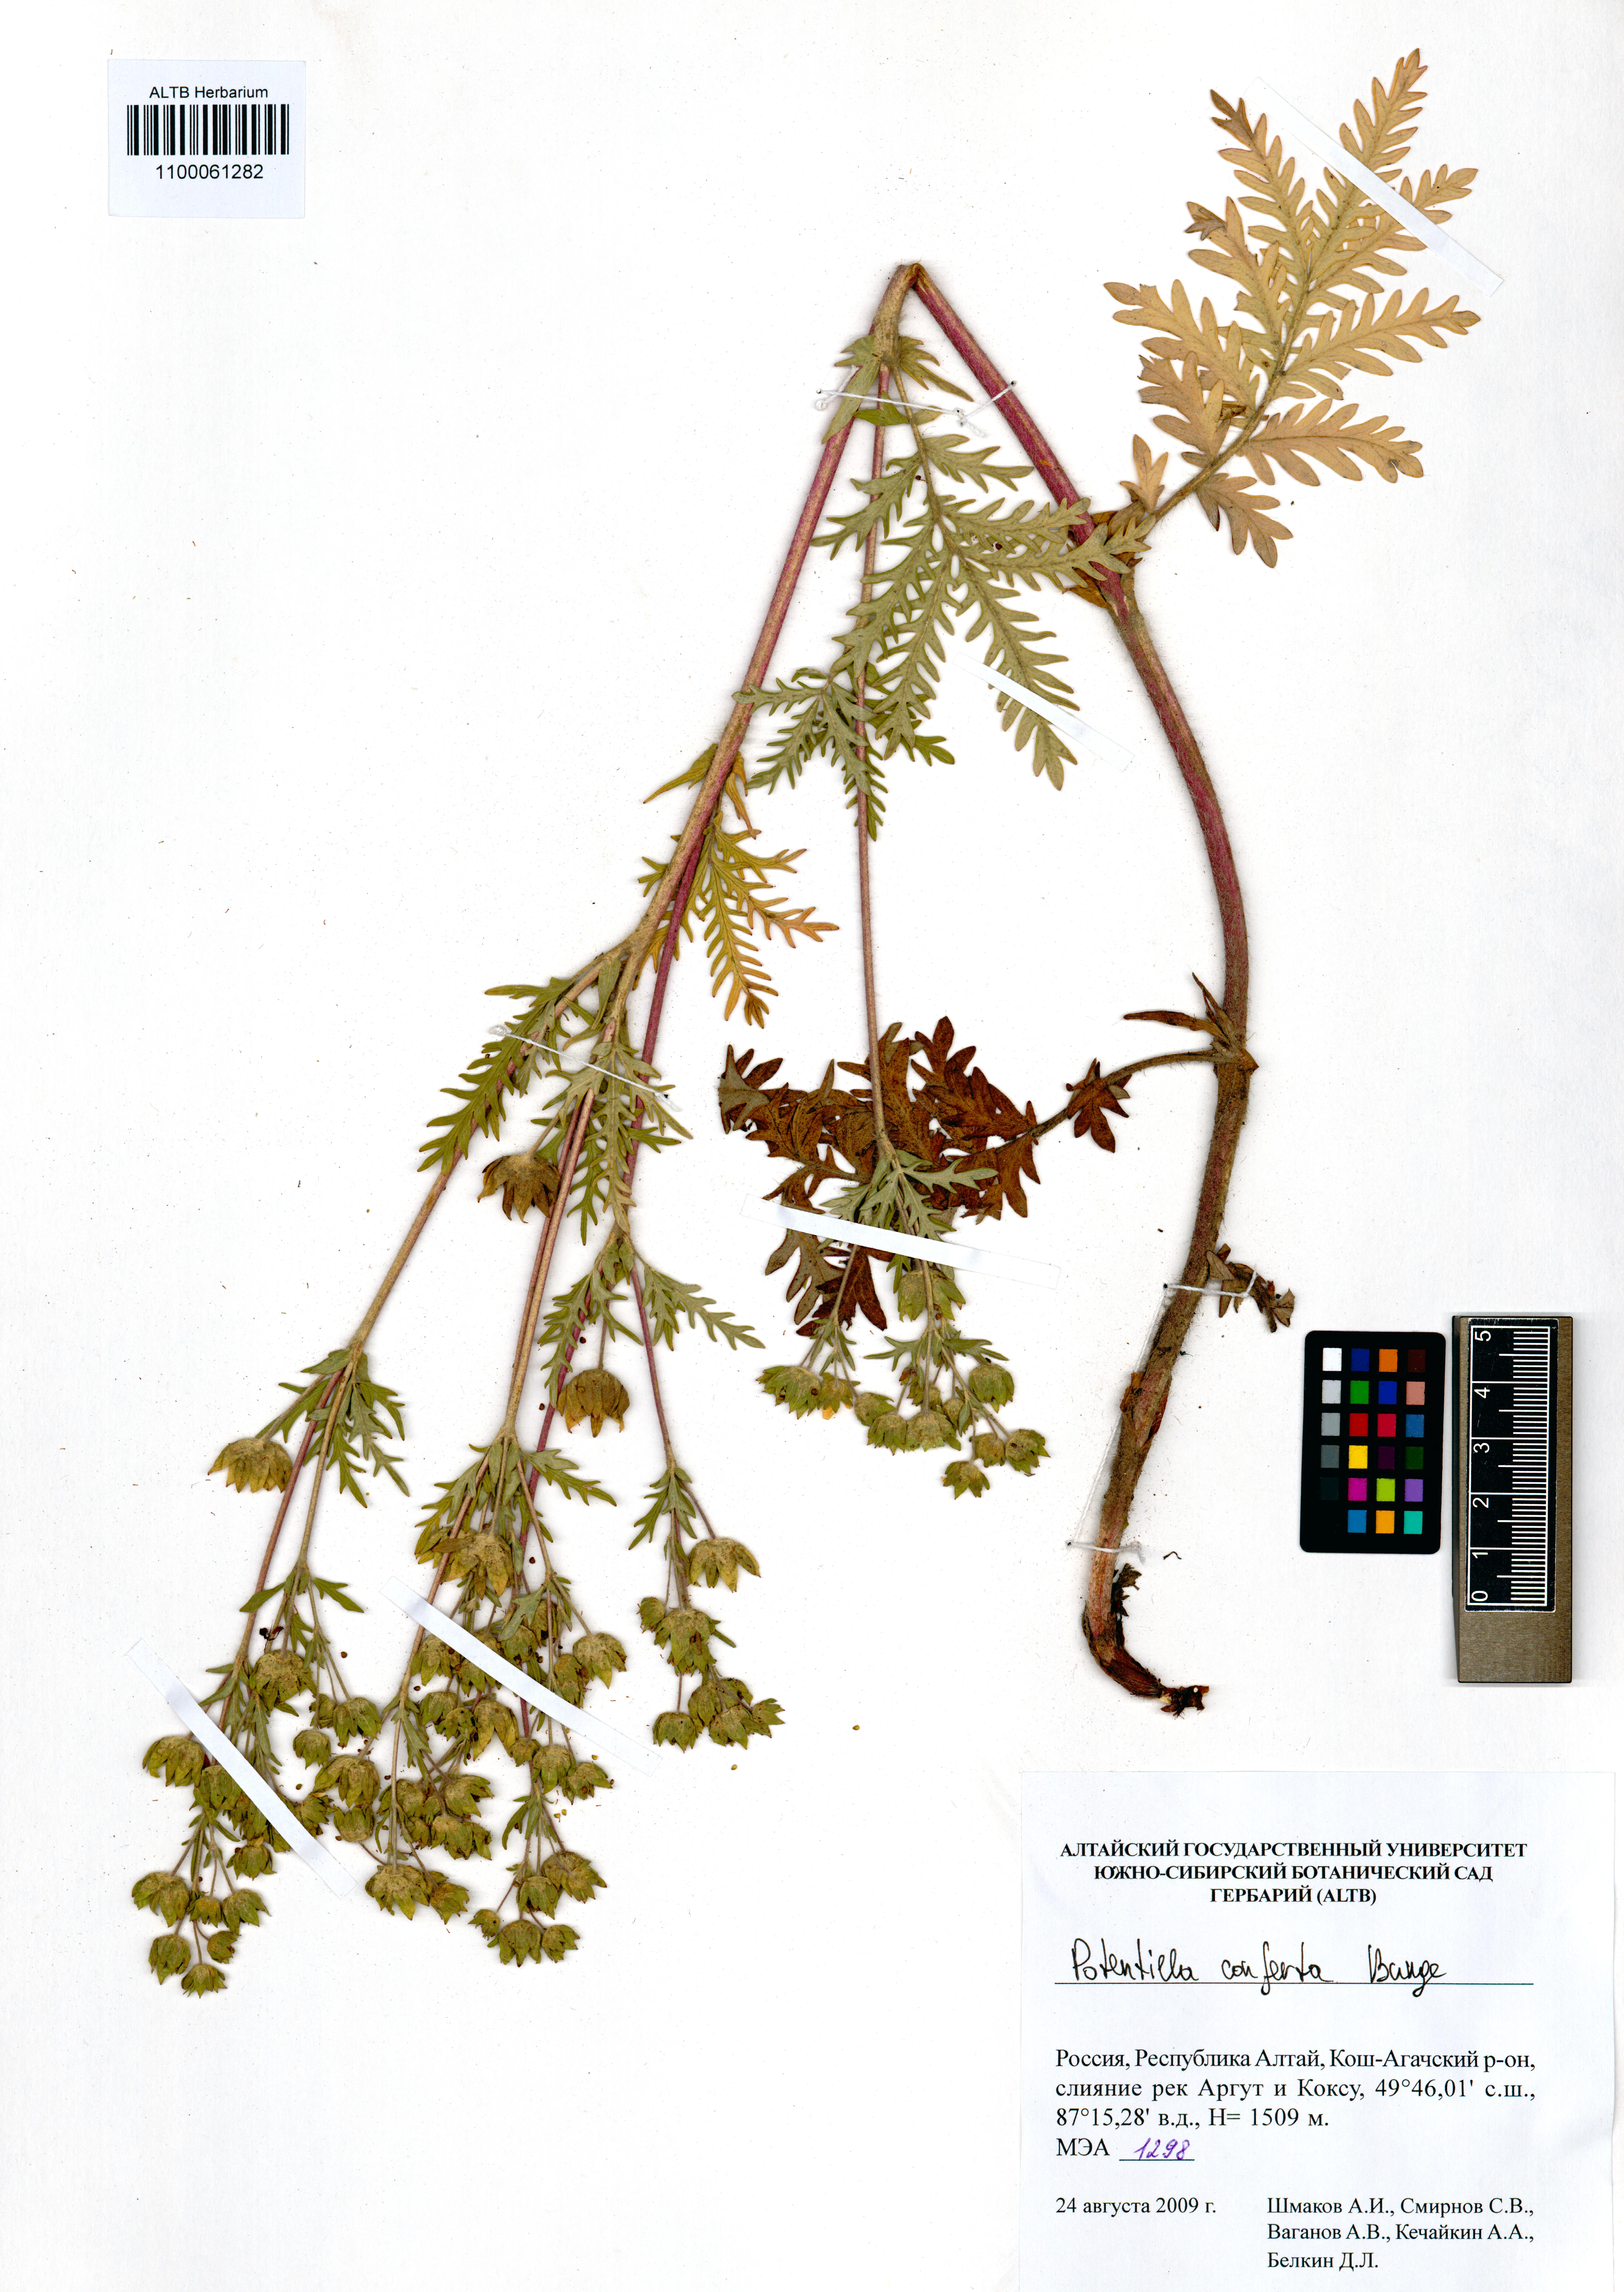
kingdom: Plantae
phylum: Tracheophyta
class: Magnoliopsida
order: Rosales
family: Rosaceae
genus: Potentilla
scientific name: Potentilla conferta
